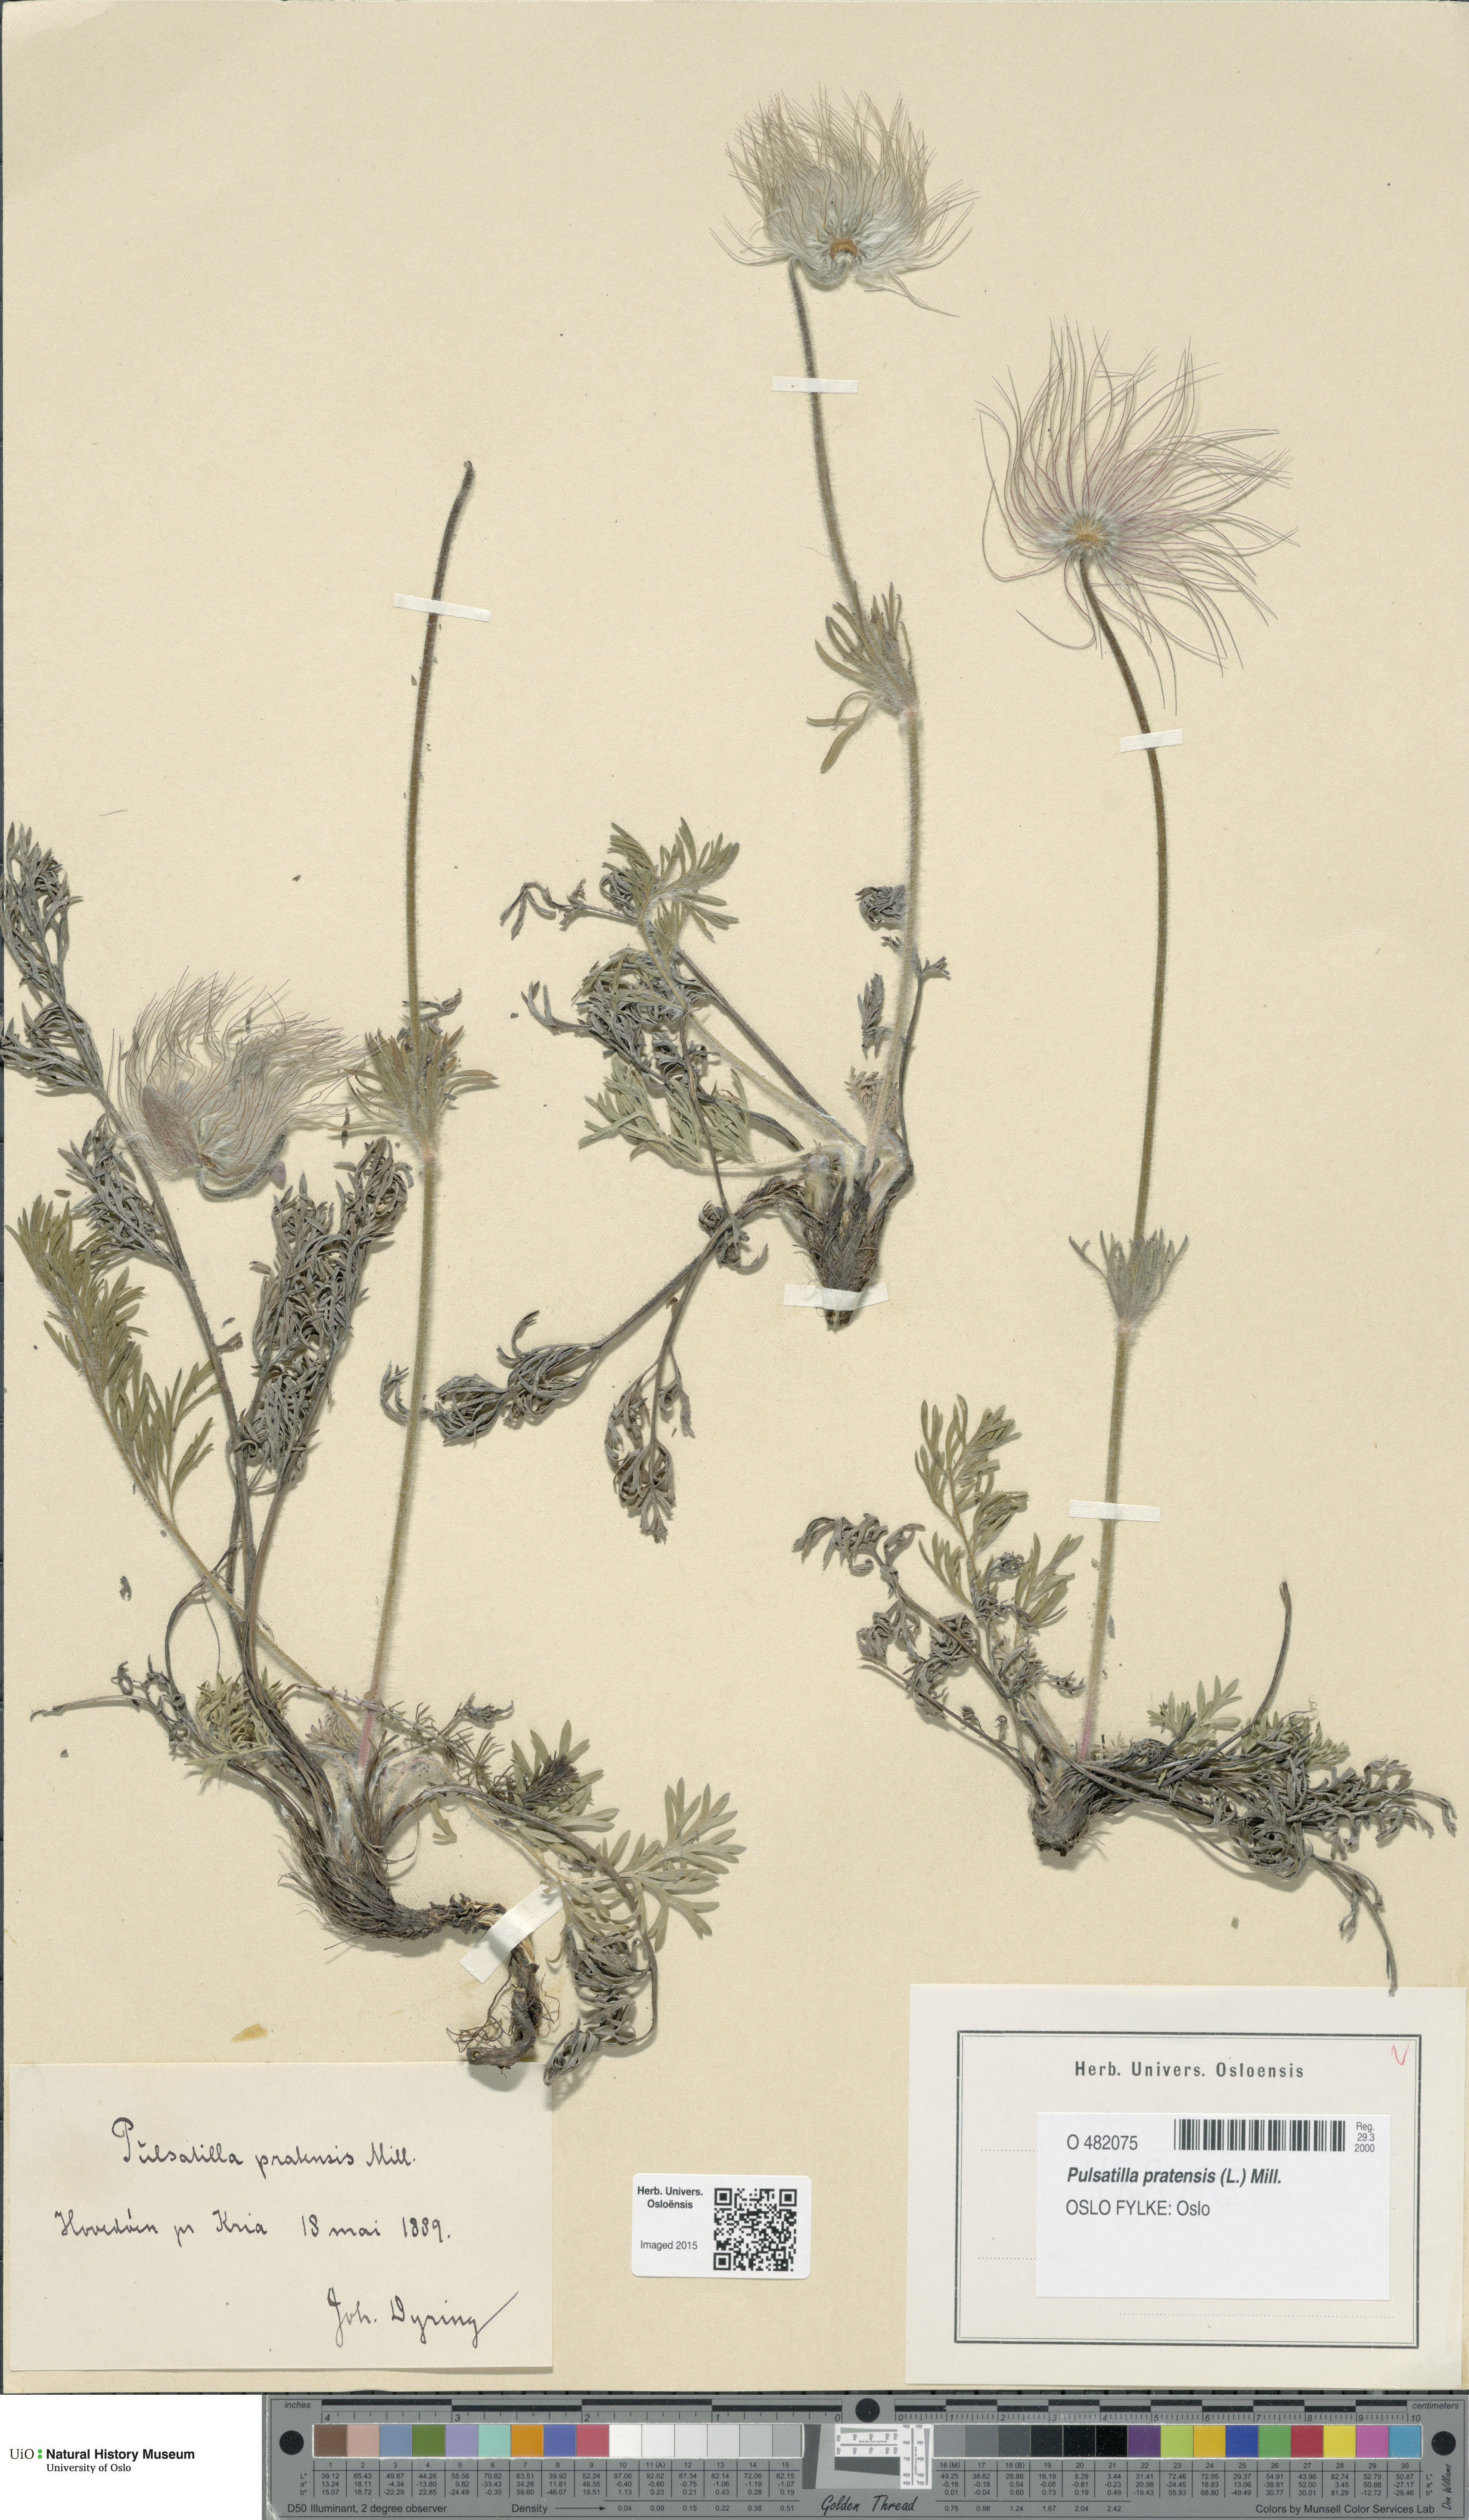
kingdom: Plantae
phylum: Tracheophyta
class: Magnoliopsida
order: Ranunculales
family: Ranunculaceae
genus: Pulsatilla
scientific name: Pulsatilla pratensis
